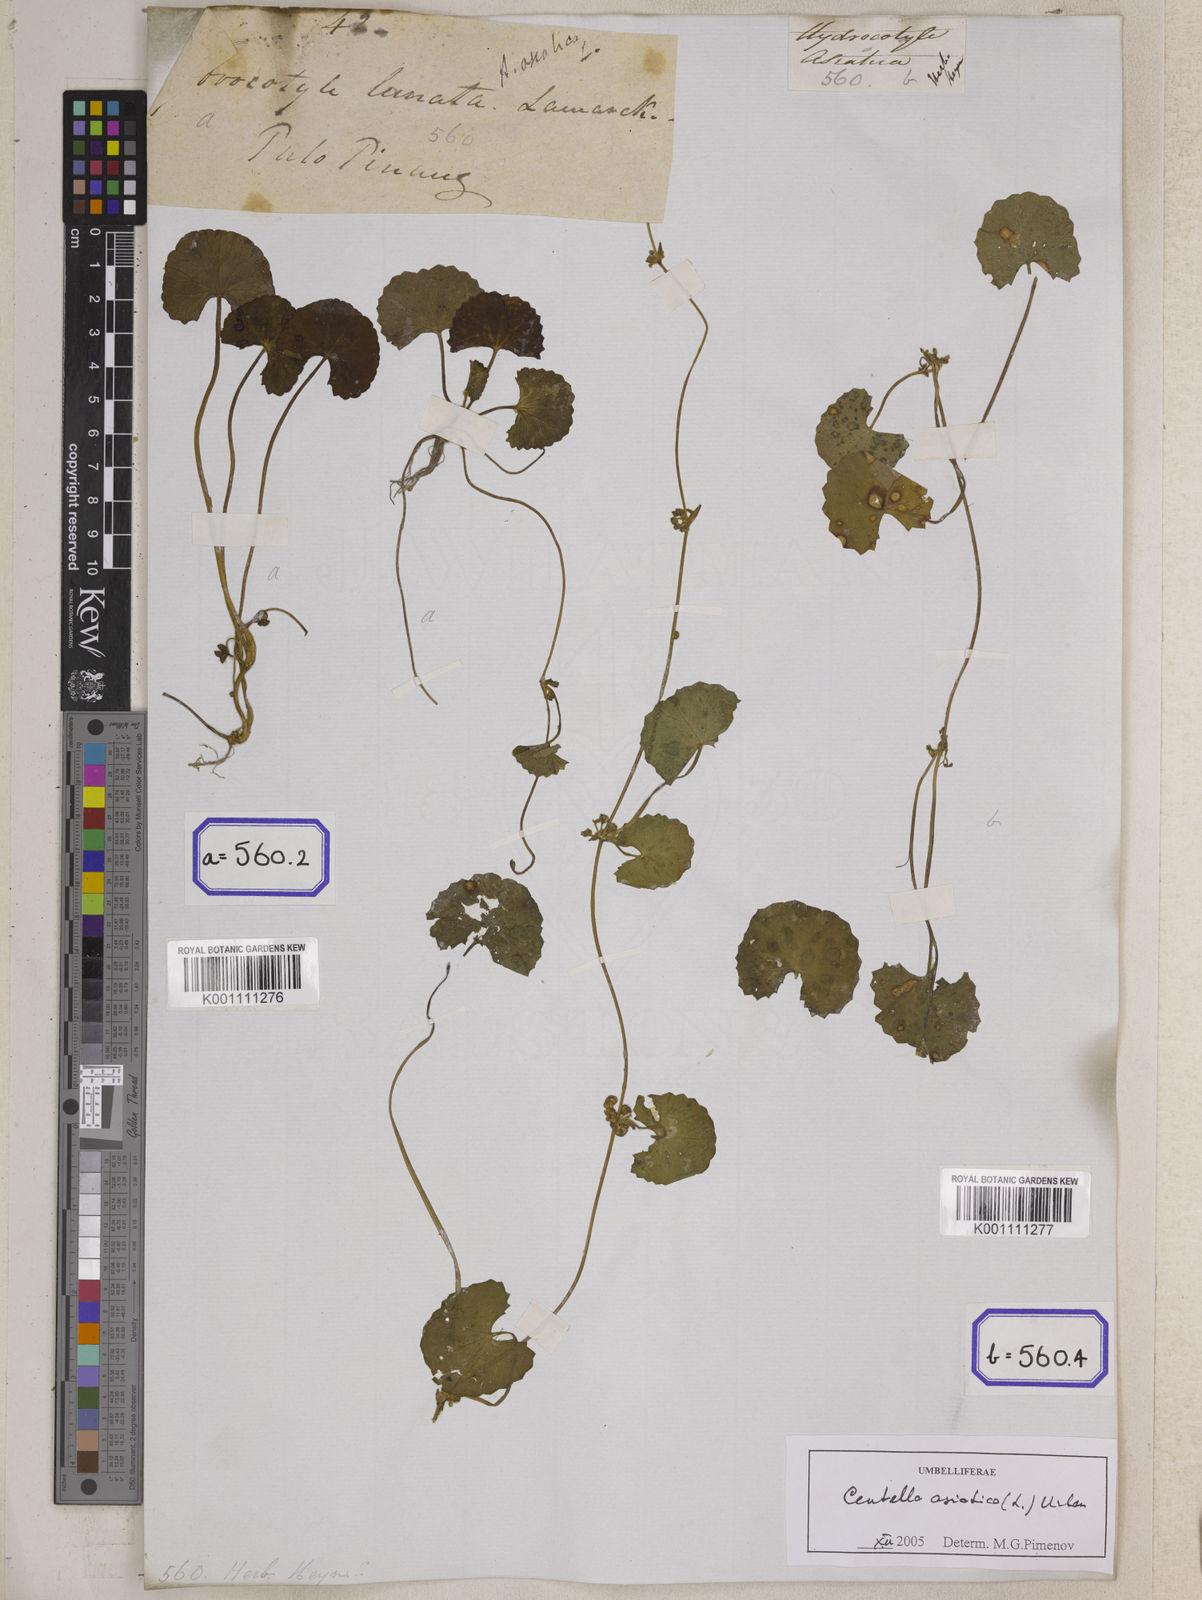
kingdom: Plantae
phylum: Tracheophyta
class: Magnoliopsida
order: Apiales
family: Apiaceae
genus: Centella
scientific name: Centella asiatica
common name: Spadeleaf
